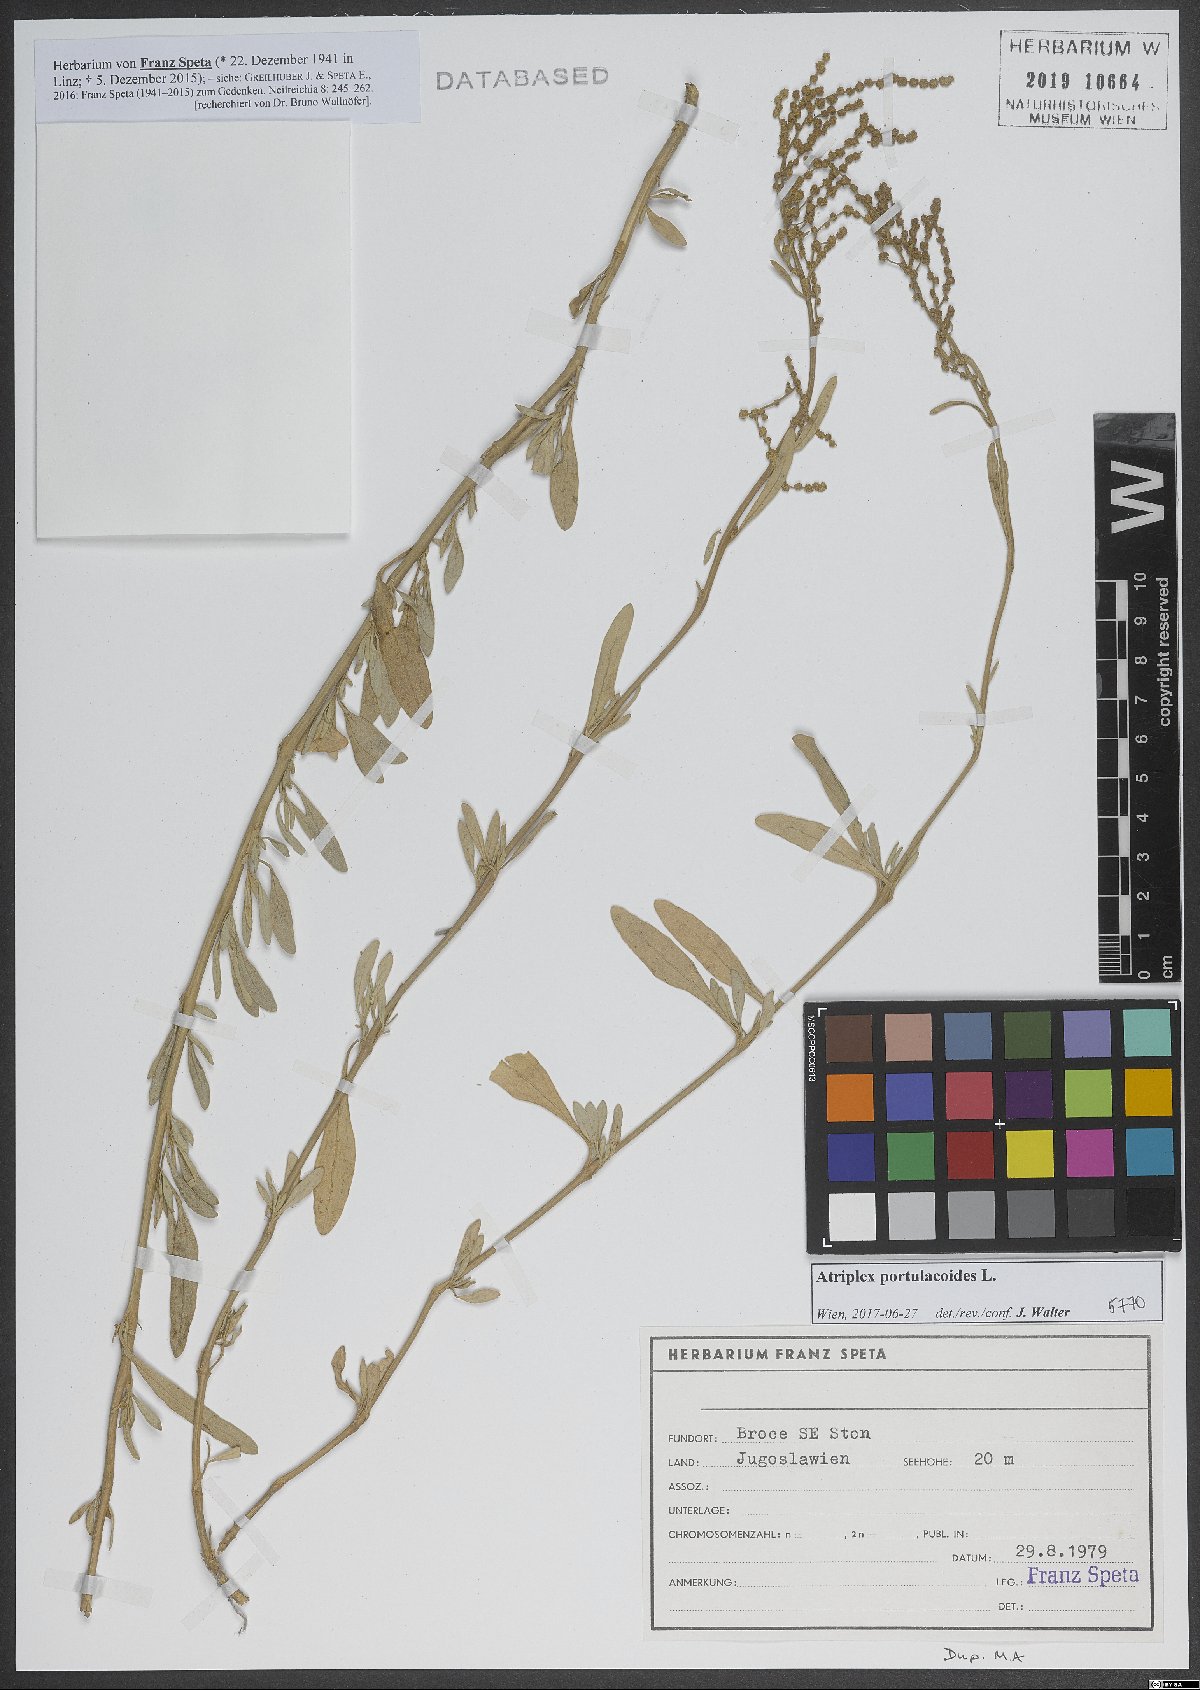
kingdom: Plantae
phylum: Tracheophyta
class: Magnoliopsida
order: Caryophyllales
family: Amaranthaceae
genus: Halimione
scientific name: Halimione portulacoides
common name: Sea-purslane
